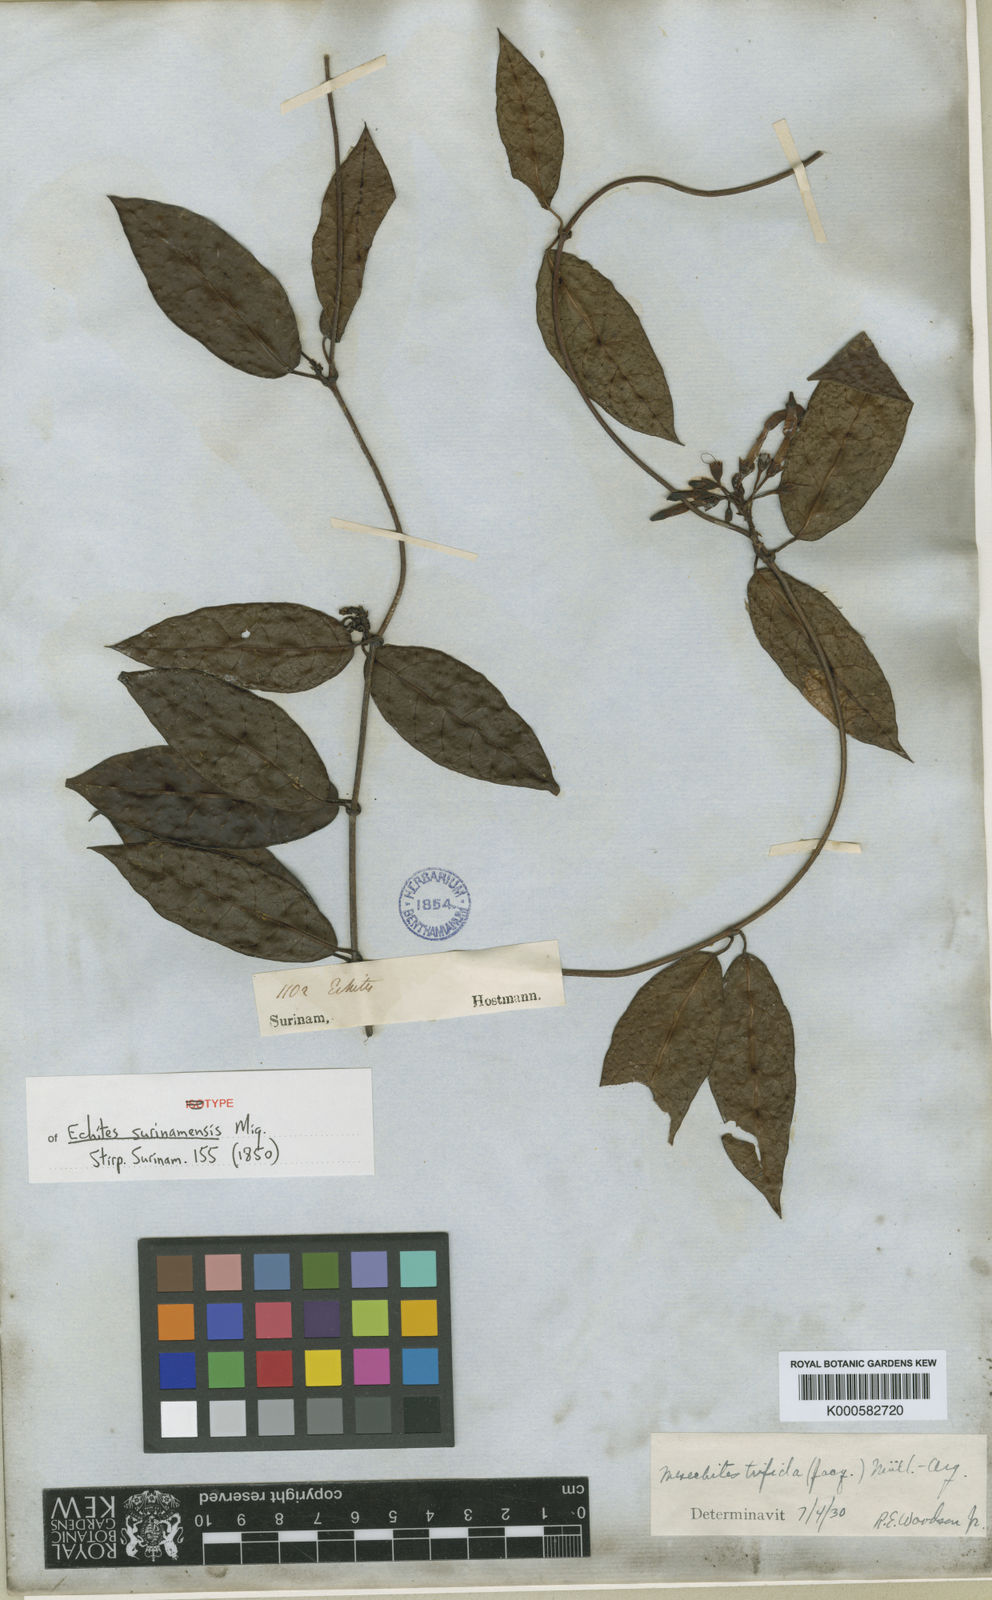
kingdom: Plantae
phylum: Tracheophyta
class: Magnoliopsida
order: Gentianales
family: Apocynaceae
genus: Mesechites
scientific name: Mesechites
